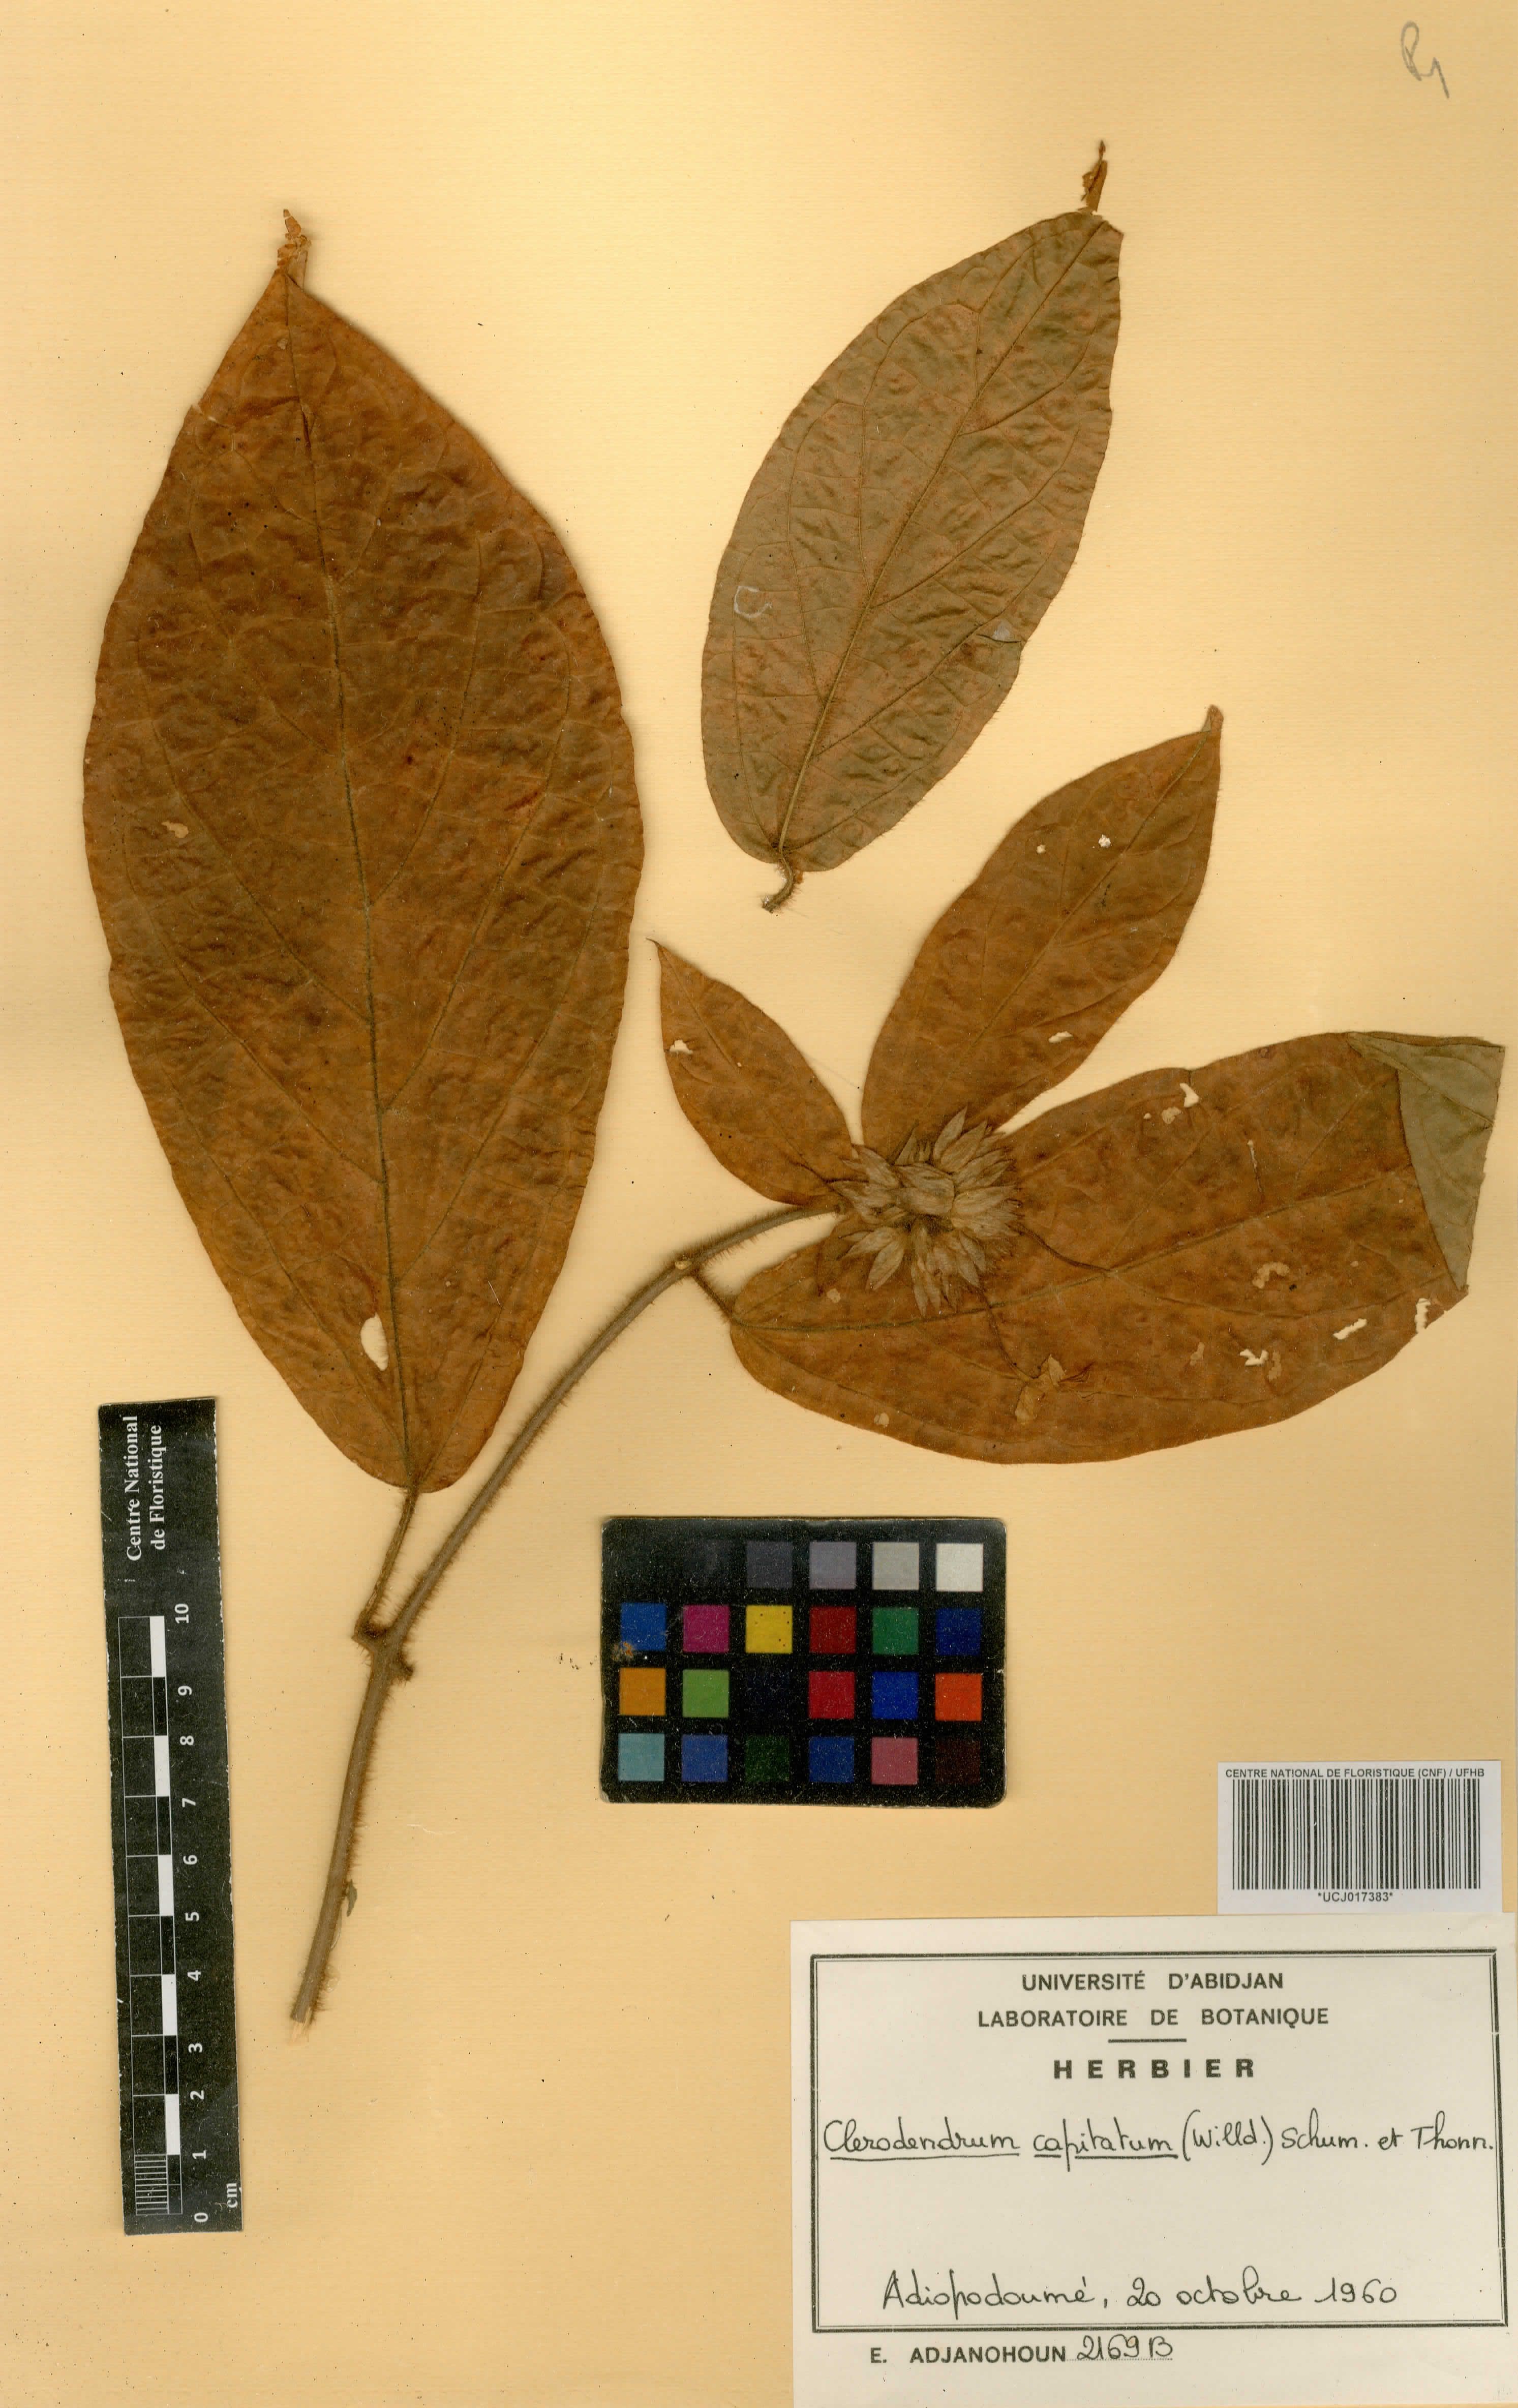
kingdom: Plantae
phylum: Tracheophyta
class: Magnoliopsida
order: Lamiales
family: Lamiaceae
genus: Clerodendrum
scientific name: Clerodendrum capitatum
